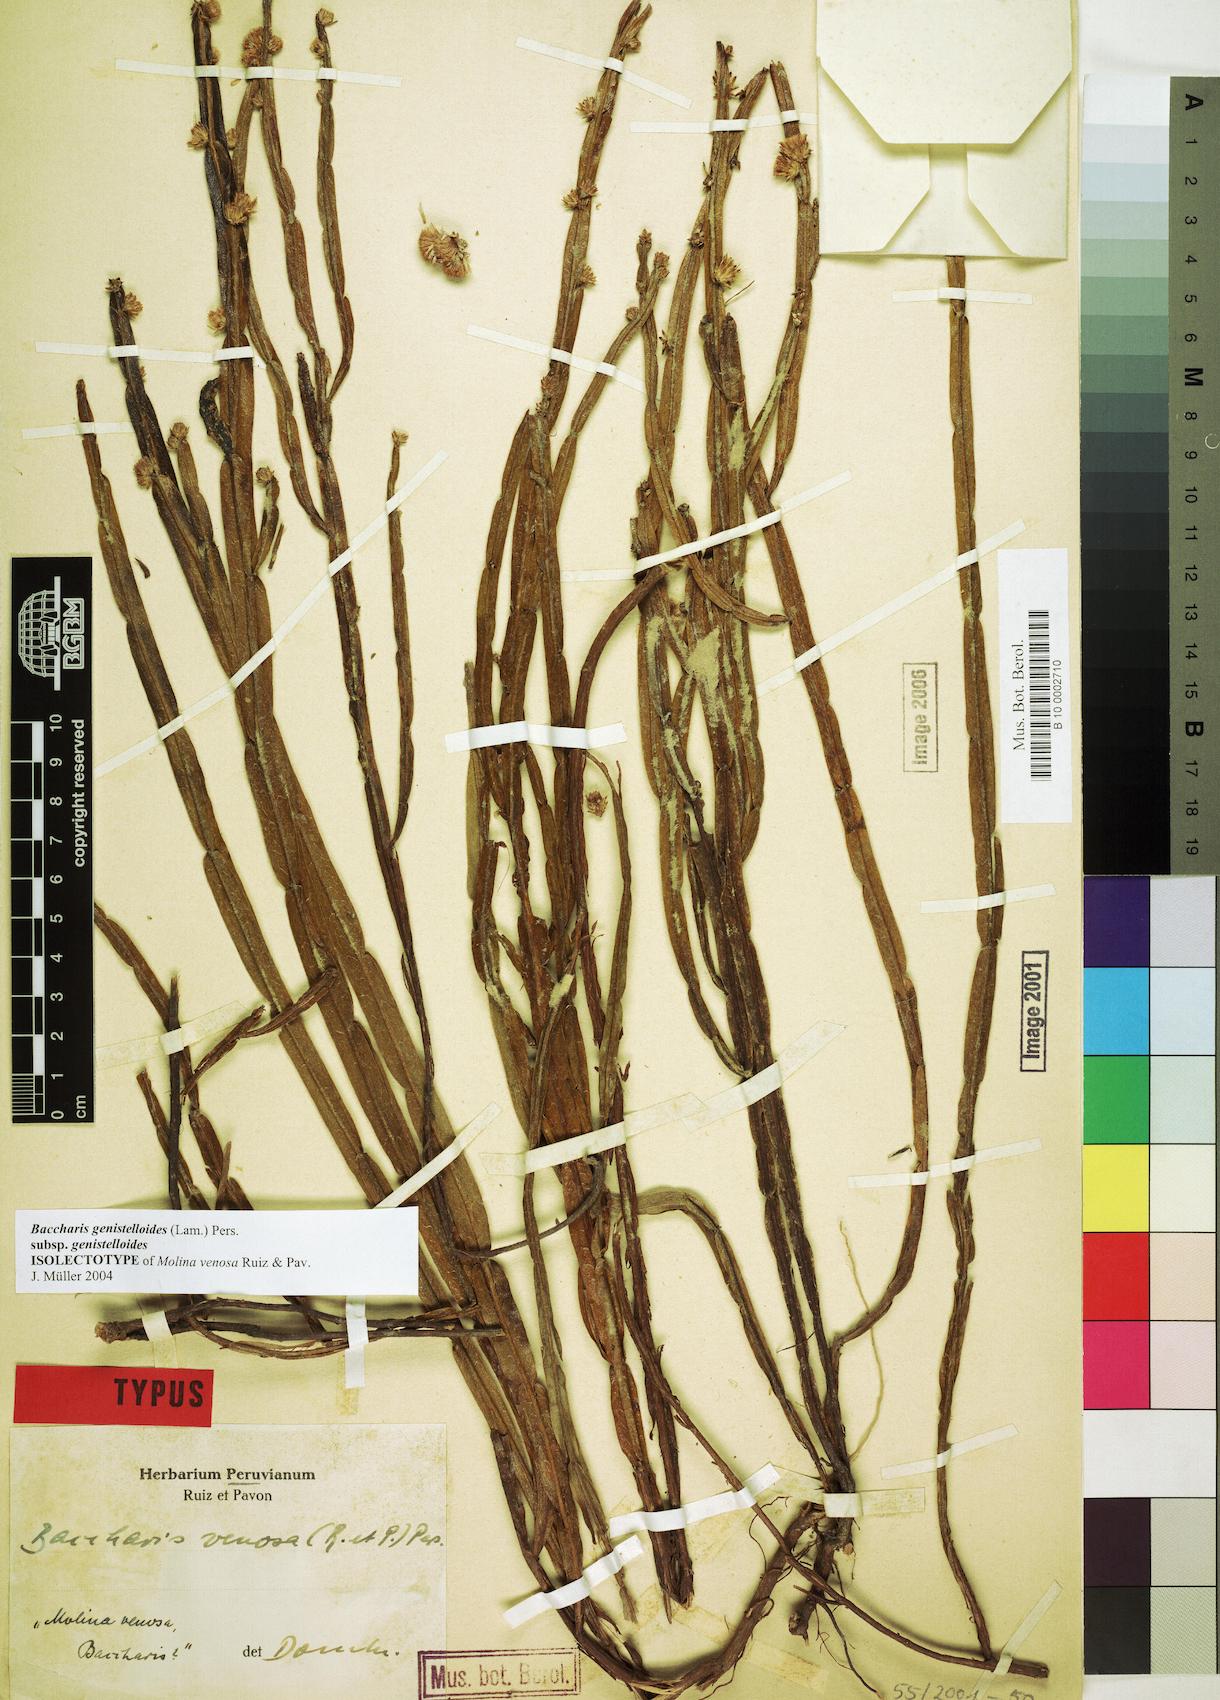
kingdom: Plantae
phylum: Tracheophyta
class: Magnoliopsida
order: Asterales
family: Asteraceae
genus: Baccharis
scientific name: Baccharis genistelloides
